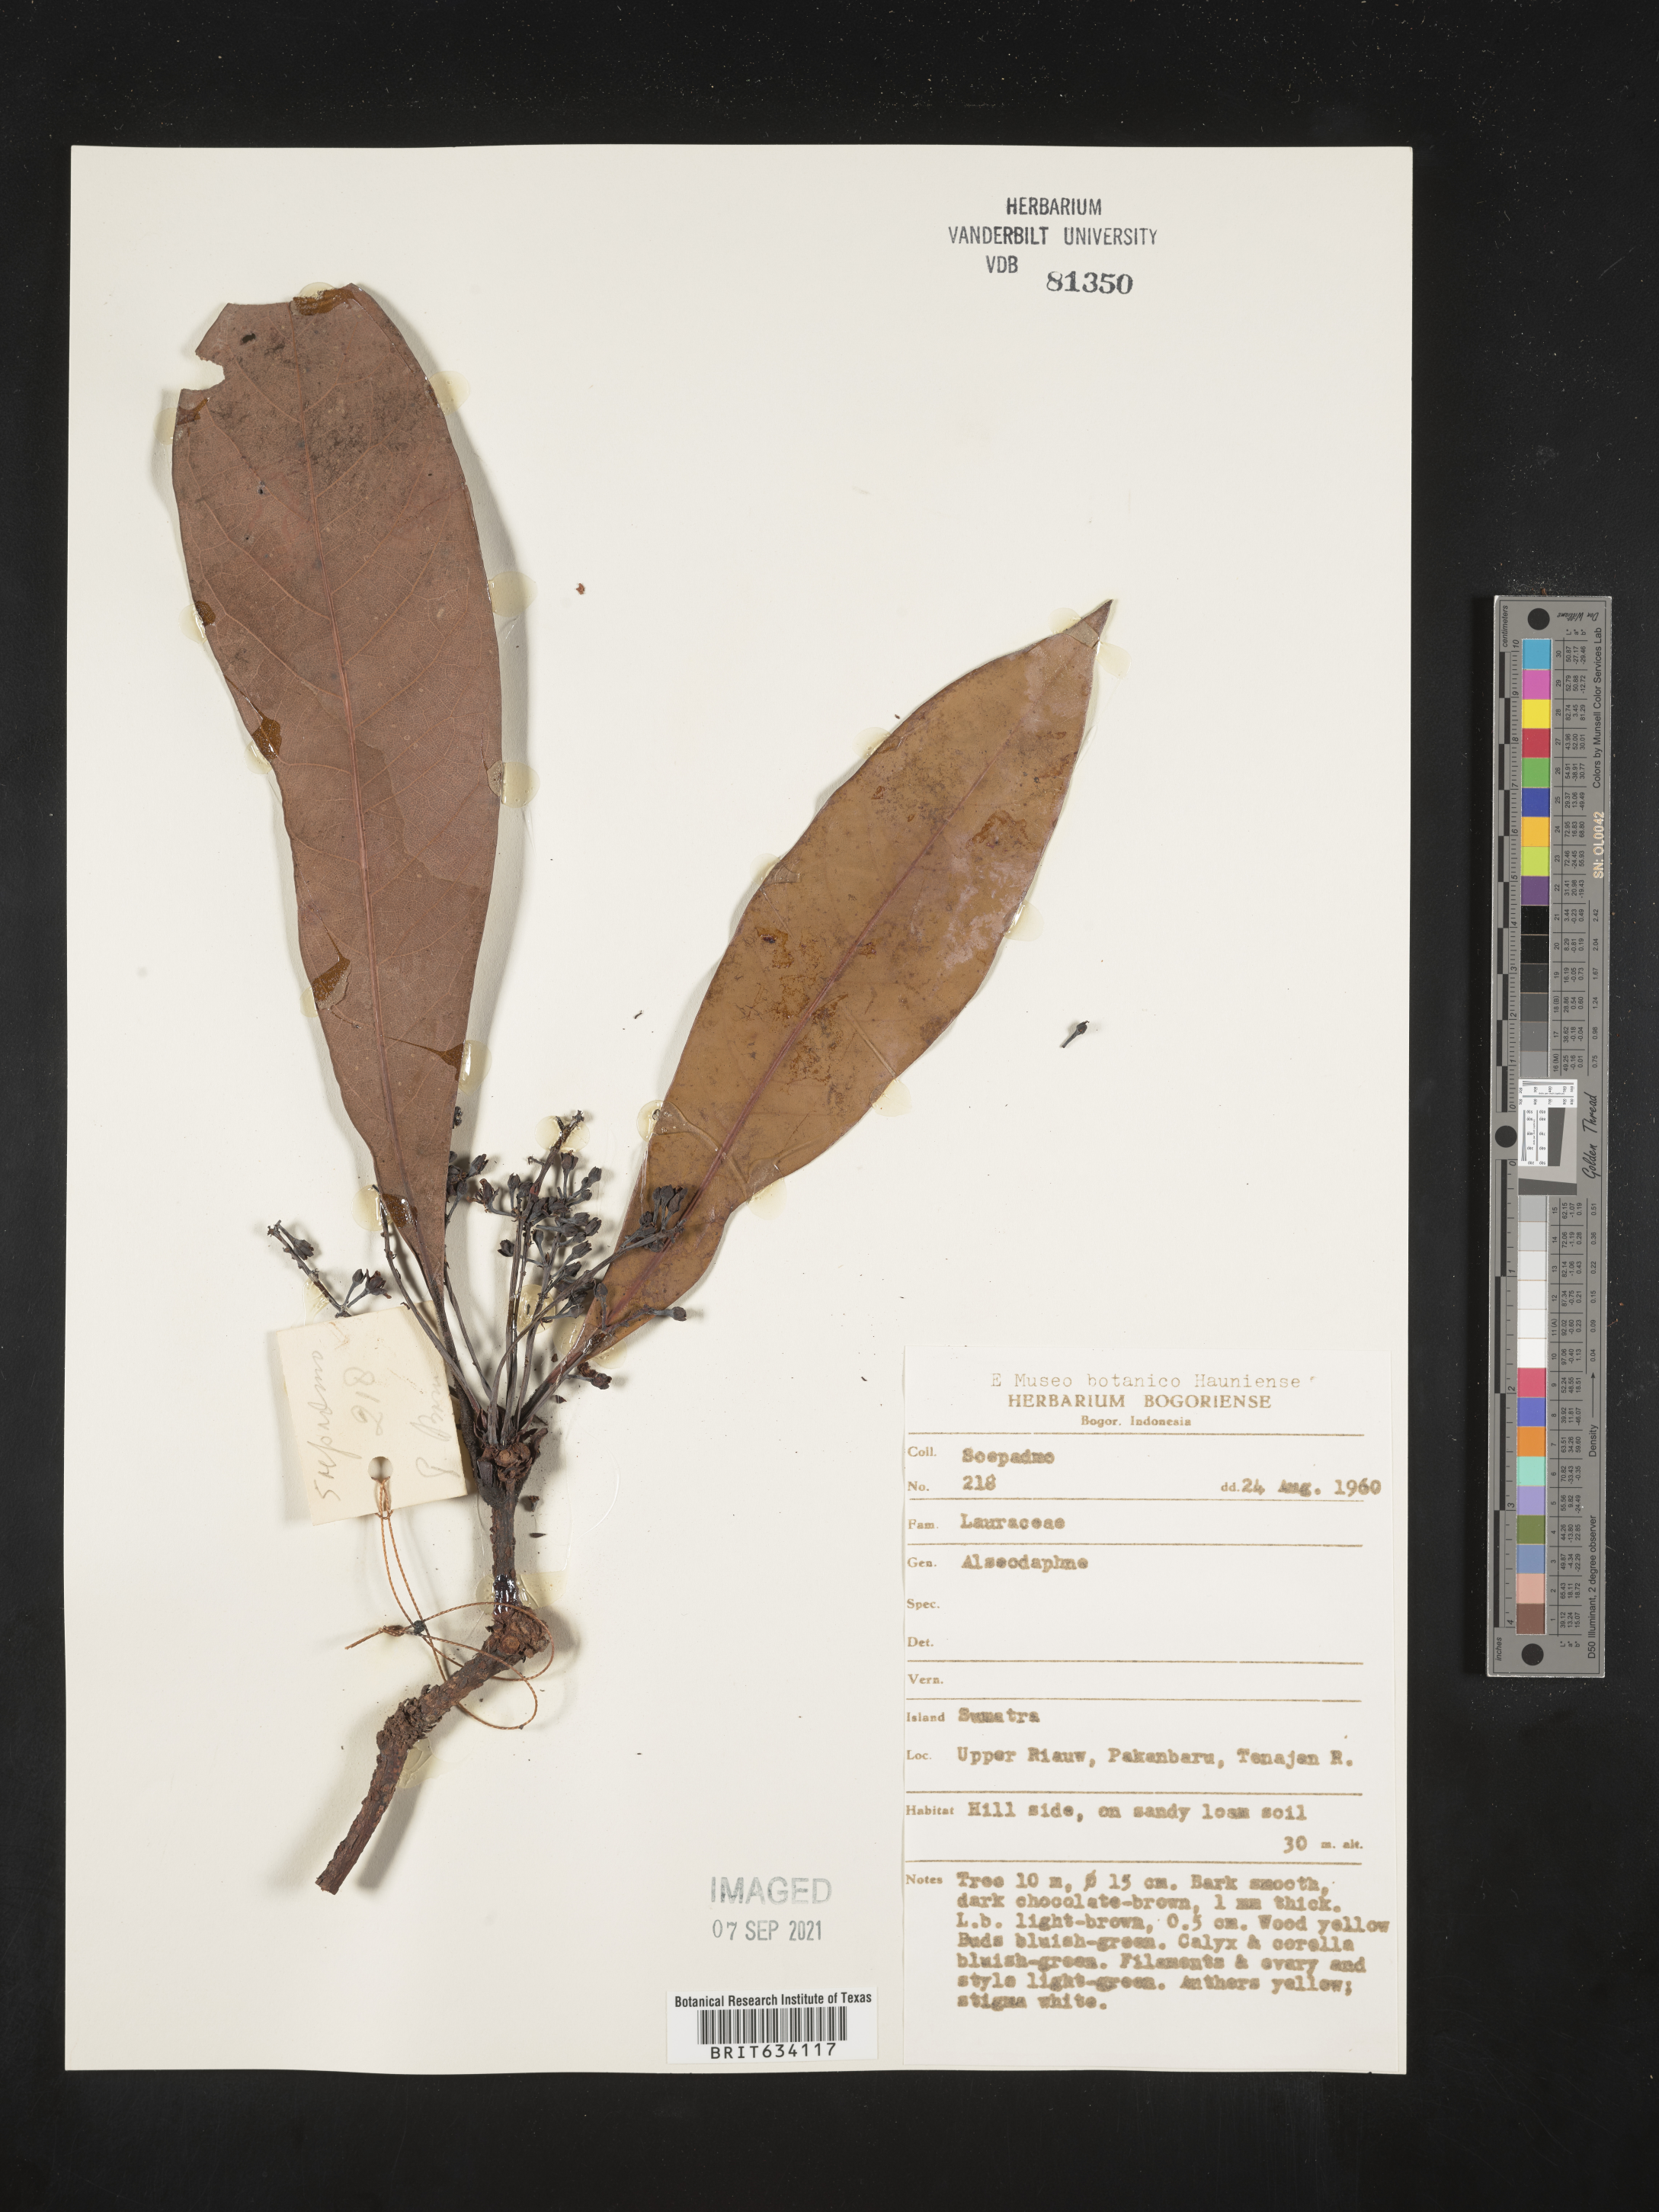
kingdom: Plantae
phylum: Tracheophyta
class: Magnoliopsida
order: Laurales
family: Lauraceae
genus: Alseodaphne
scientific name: Alseodaphne
